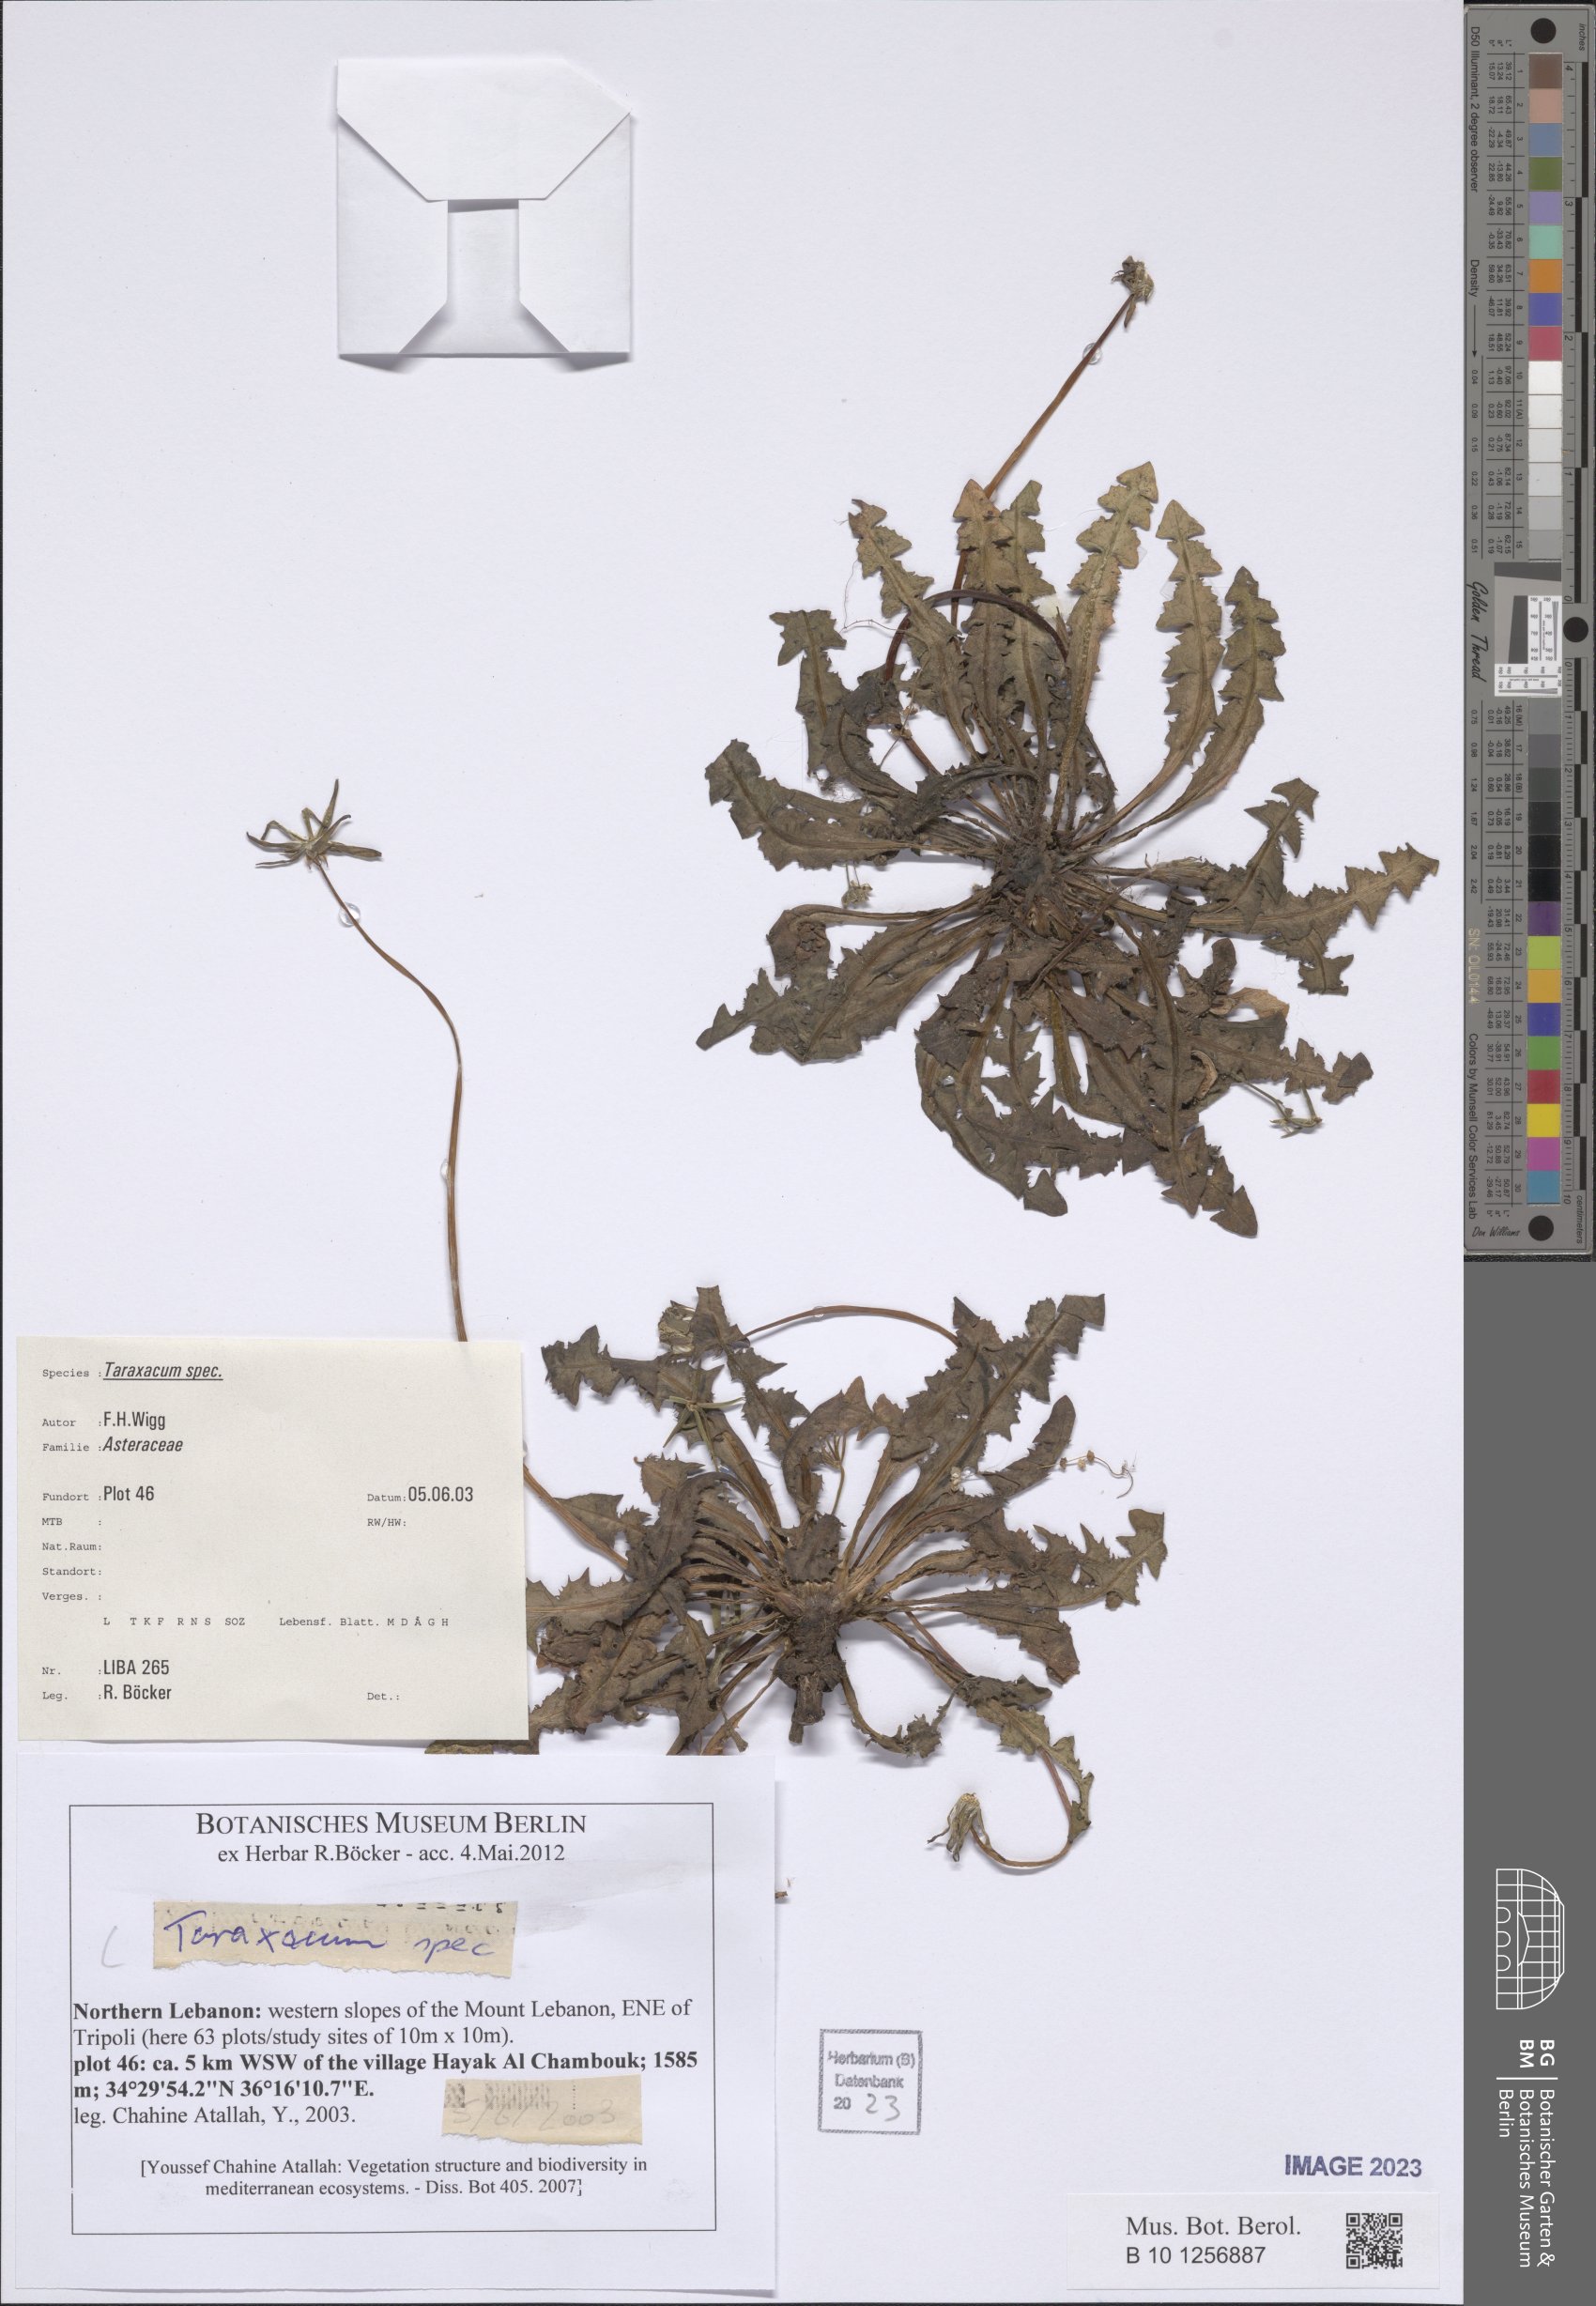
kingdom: Plantae
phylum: Tracheophyta
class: Magnoliopsida
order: Asterales
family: Asteraceae
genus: Taraxacum
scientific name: Taraxacum
